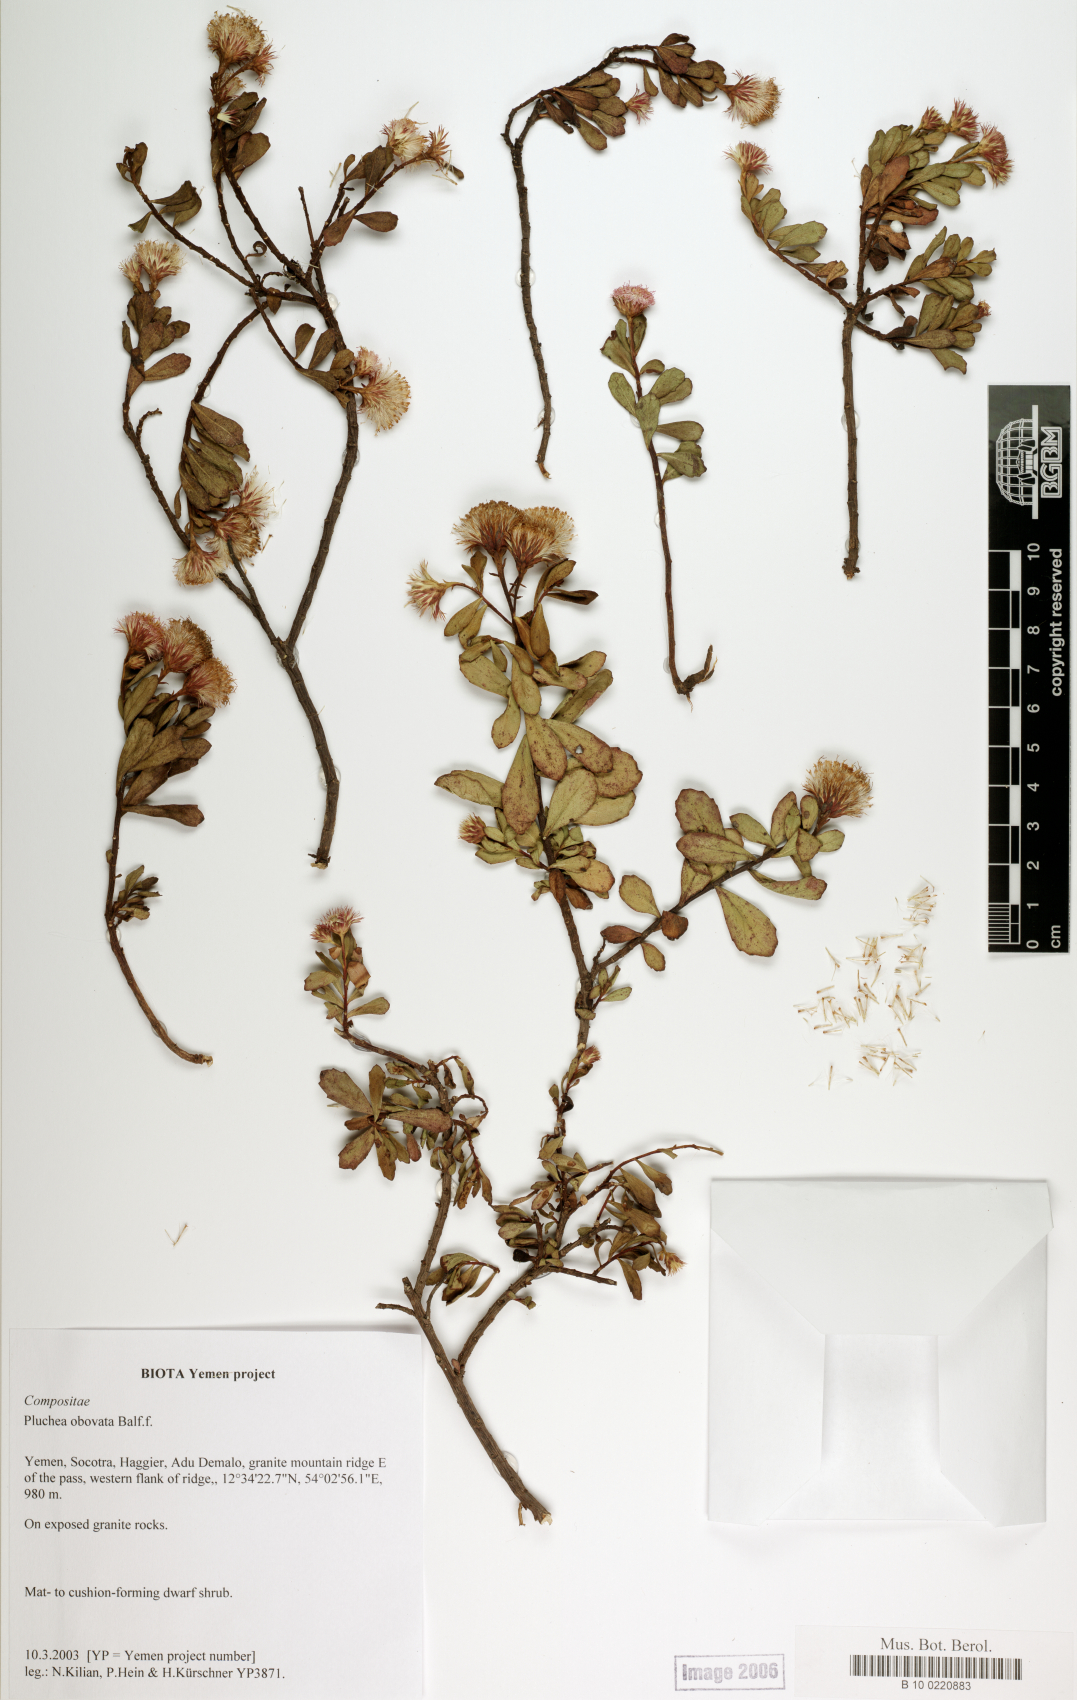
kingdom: Plantae
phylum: Tracheophyta
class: Magnoliopsida
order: Asterales
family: Asteraceae
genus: Pluchea
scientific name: Pluchea obovata
